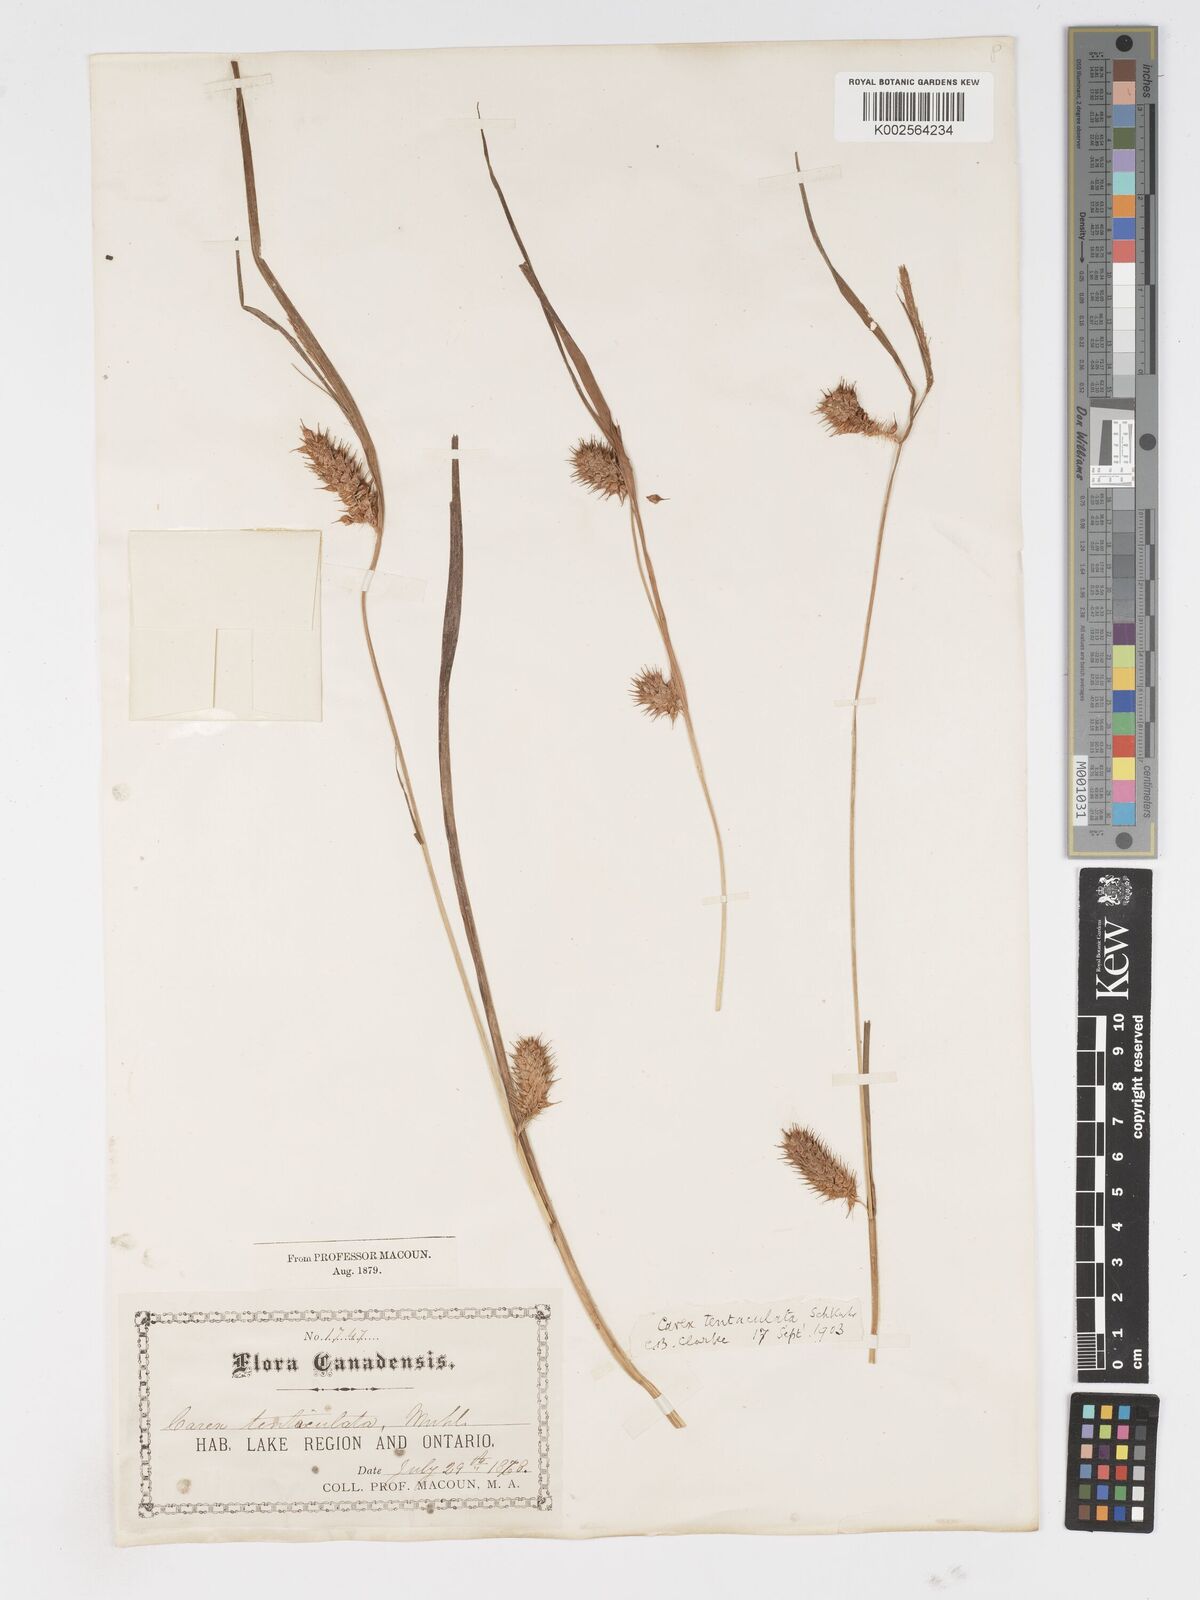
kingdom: Plantae
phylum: Tracheophyta
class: Liliopsida
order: Poales
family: Cyperaceae
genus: Carex
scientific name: Carex lurida
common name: Sallow sedge
